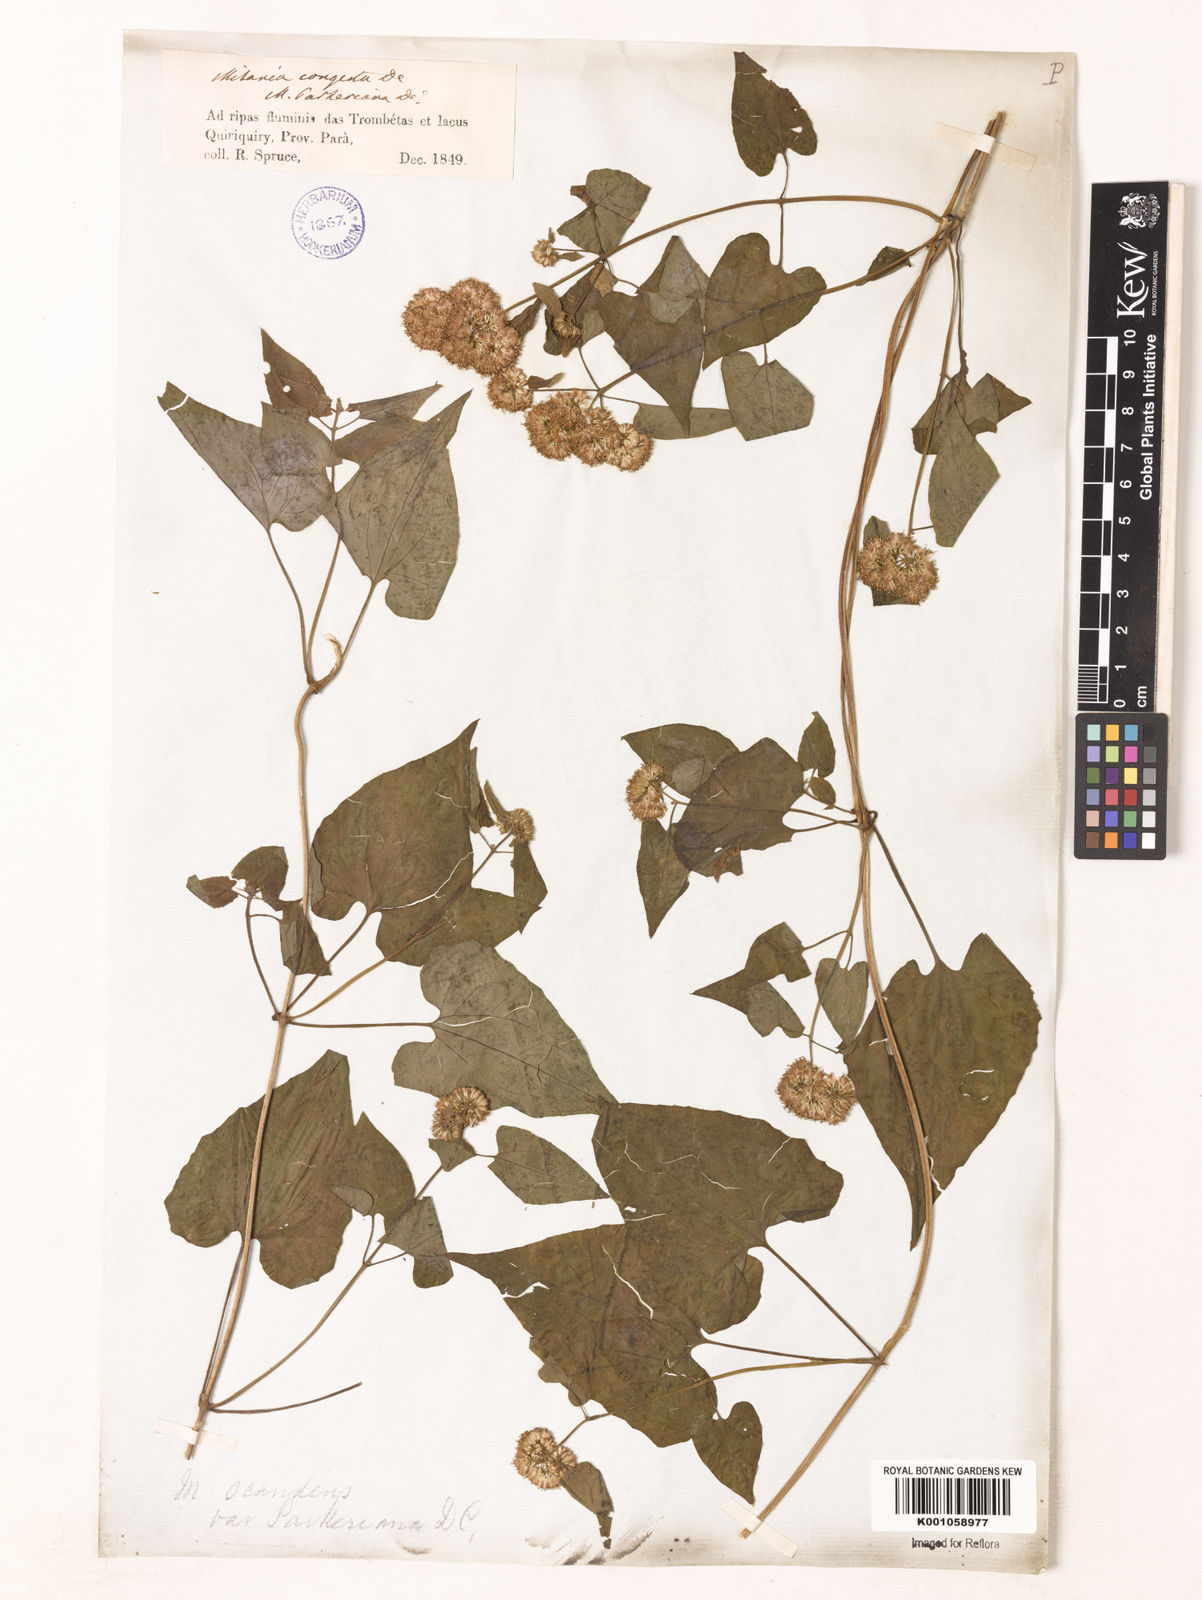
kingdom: Plantae
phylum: Tracheophyta
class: Magnoliopsida
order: Asterales
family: Asteraceae
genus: Mikania
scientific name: Mikania congesta
